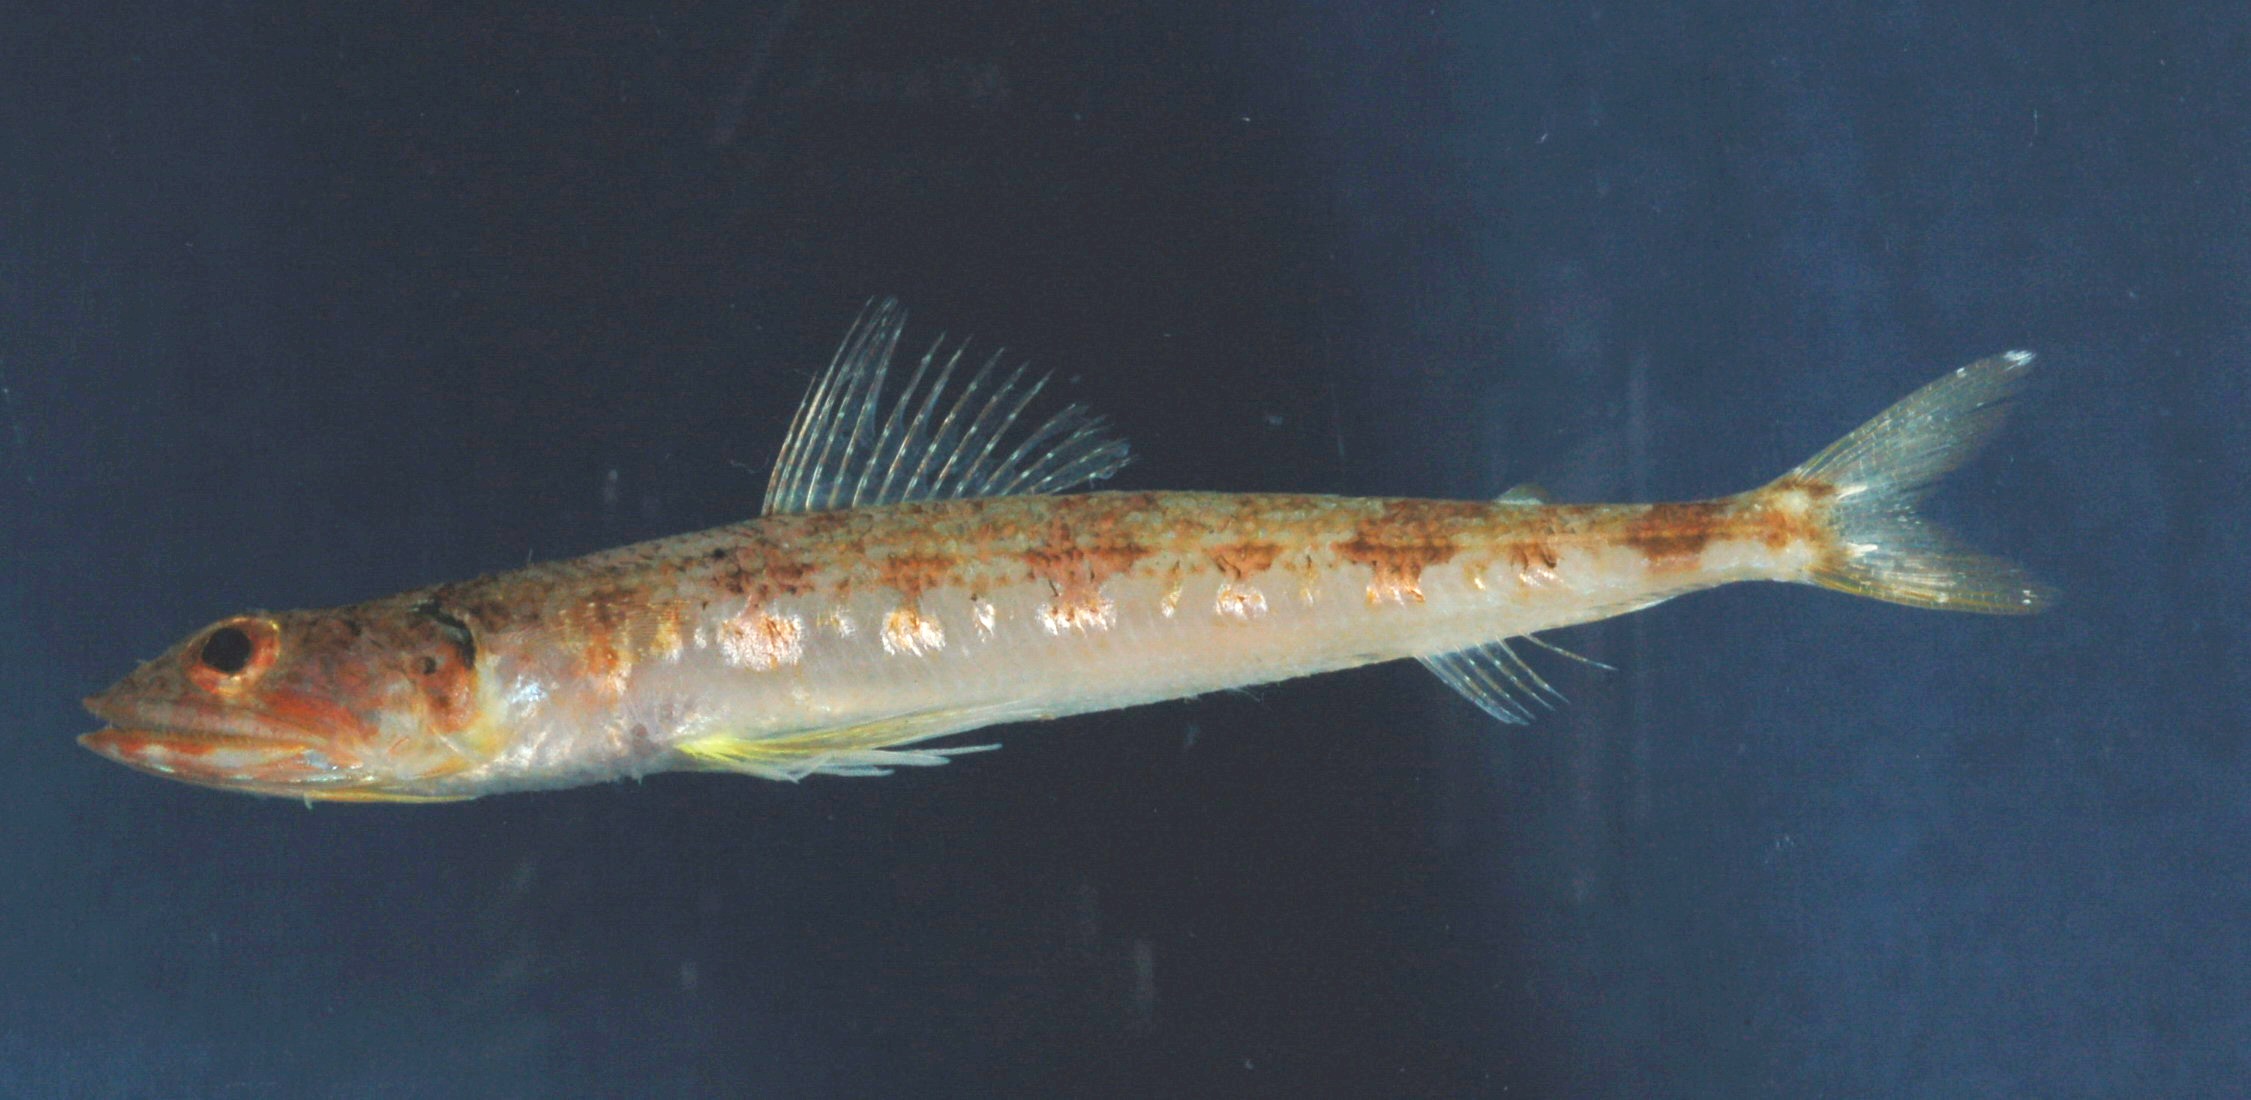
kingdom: Animalia
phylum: Chordata
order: Aulopiformes
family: Synodontidae
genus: Synodus
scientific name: Synodus hoshinonis
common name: Blackear lizardfish
